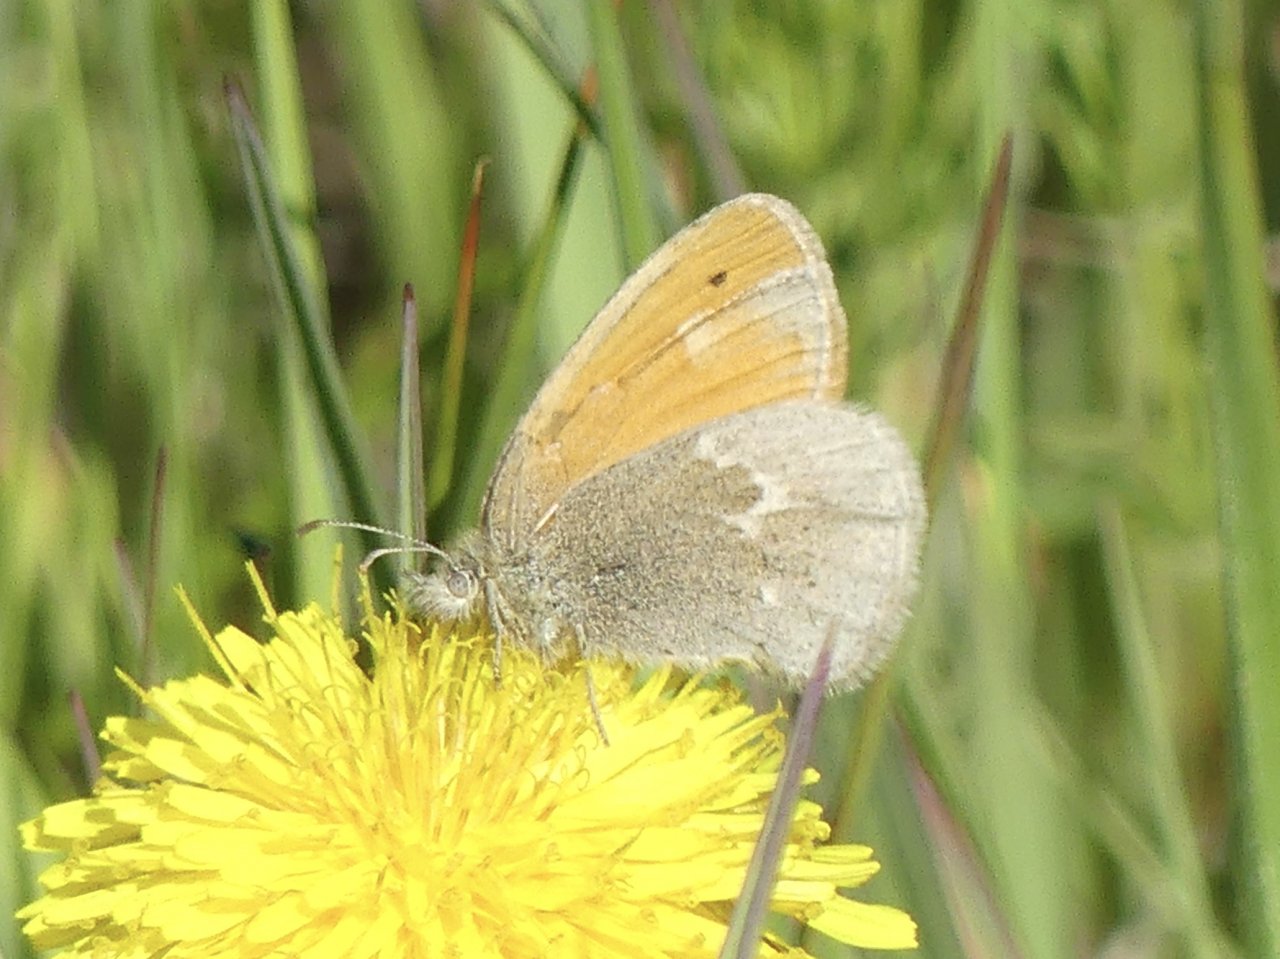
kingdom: Animalia
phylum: Arthropoda
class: Insecta
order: Lepidoptera
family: Nymphalidae
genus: Coenonympha
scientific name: Coenonympha tullia
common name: Large Heath
